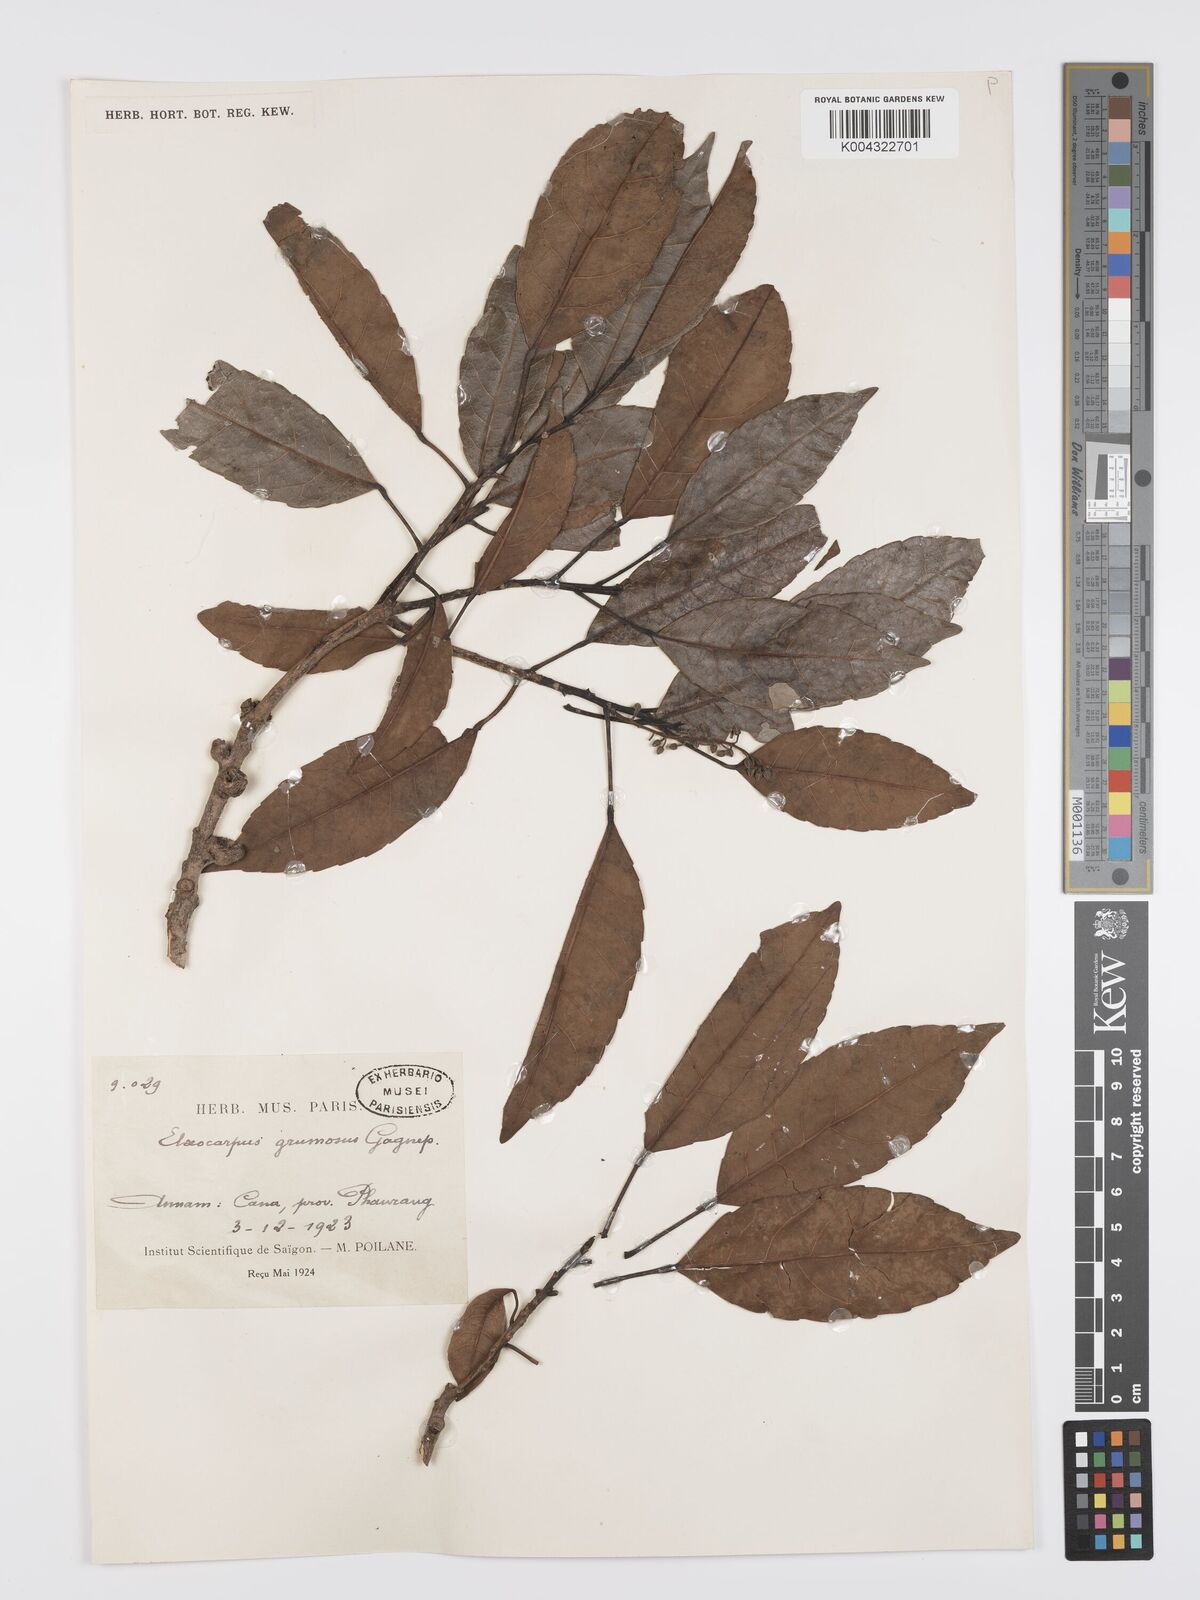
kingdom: Plantae
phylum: Tracheophyta
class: Magnoliopsida
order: Oxalidales
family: Elaeocarpaceae
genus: Elaeocarpus
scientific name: Elaeocarpus grumosus
